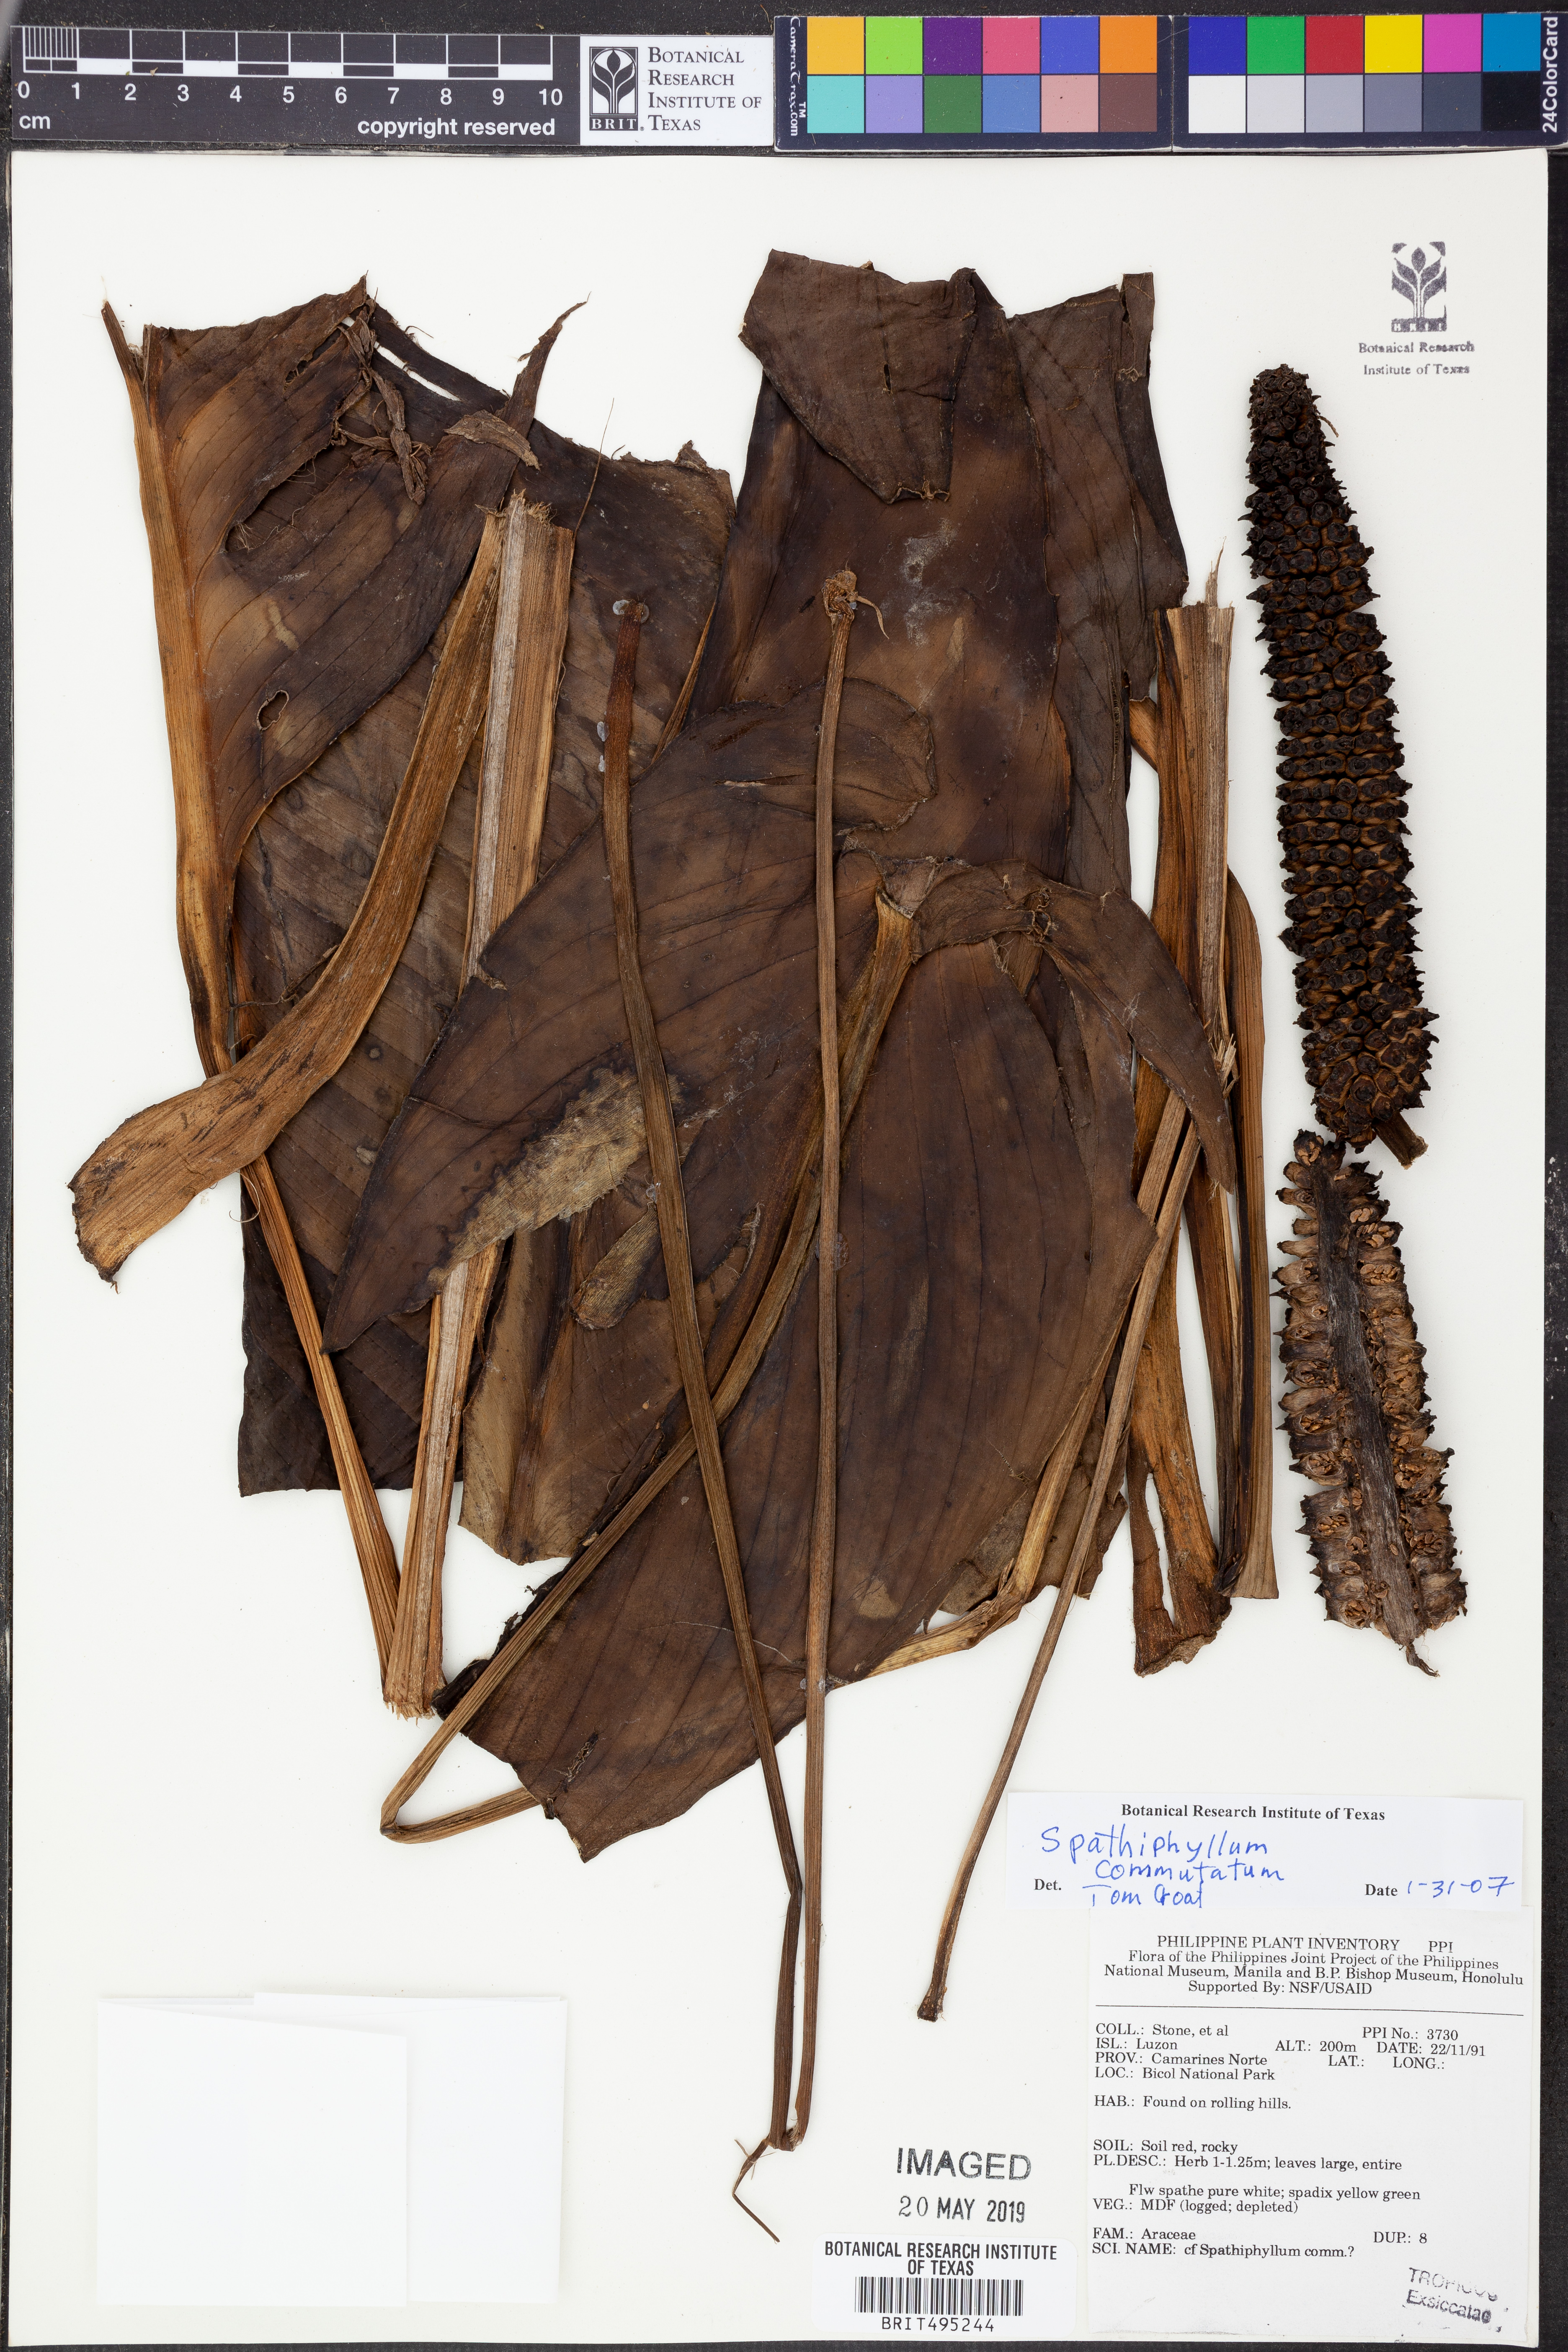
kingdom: Plantae
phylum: Tracheophyta
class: Liliopsida
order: Alismatales
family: Araceae
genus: Spathiphyllum
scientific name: Spathiphyllum commutatum
